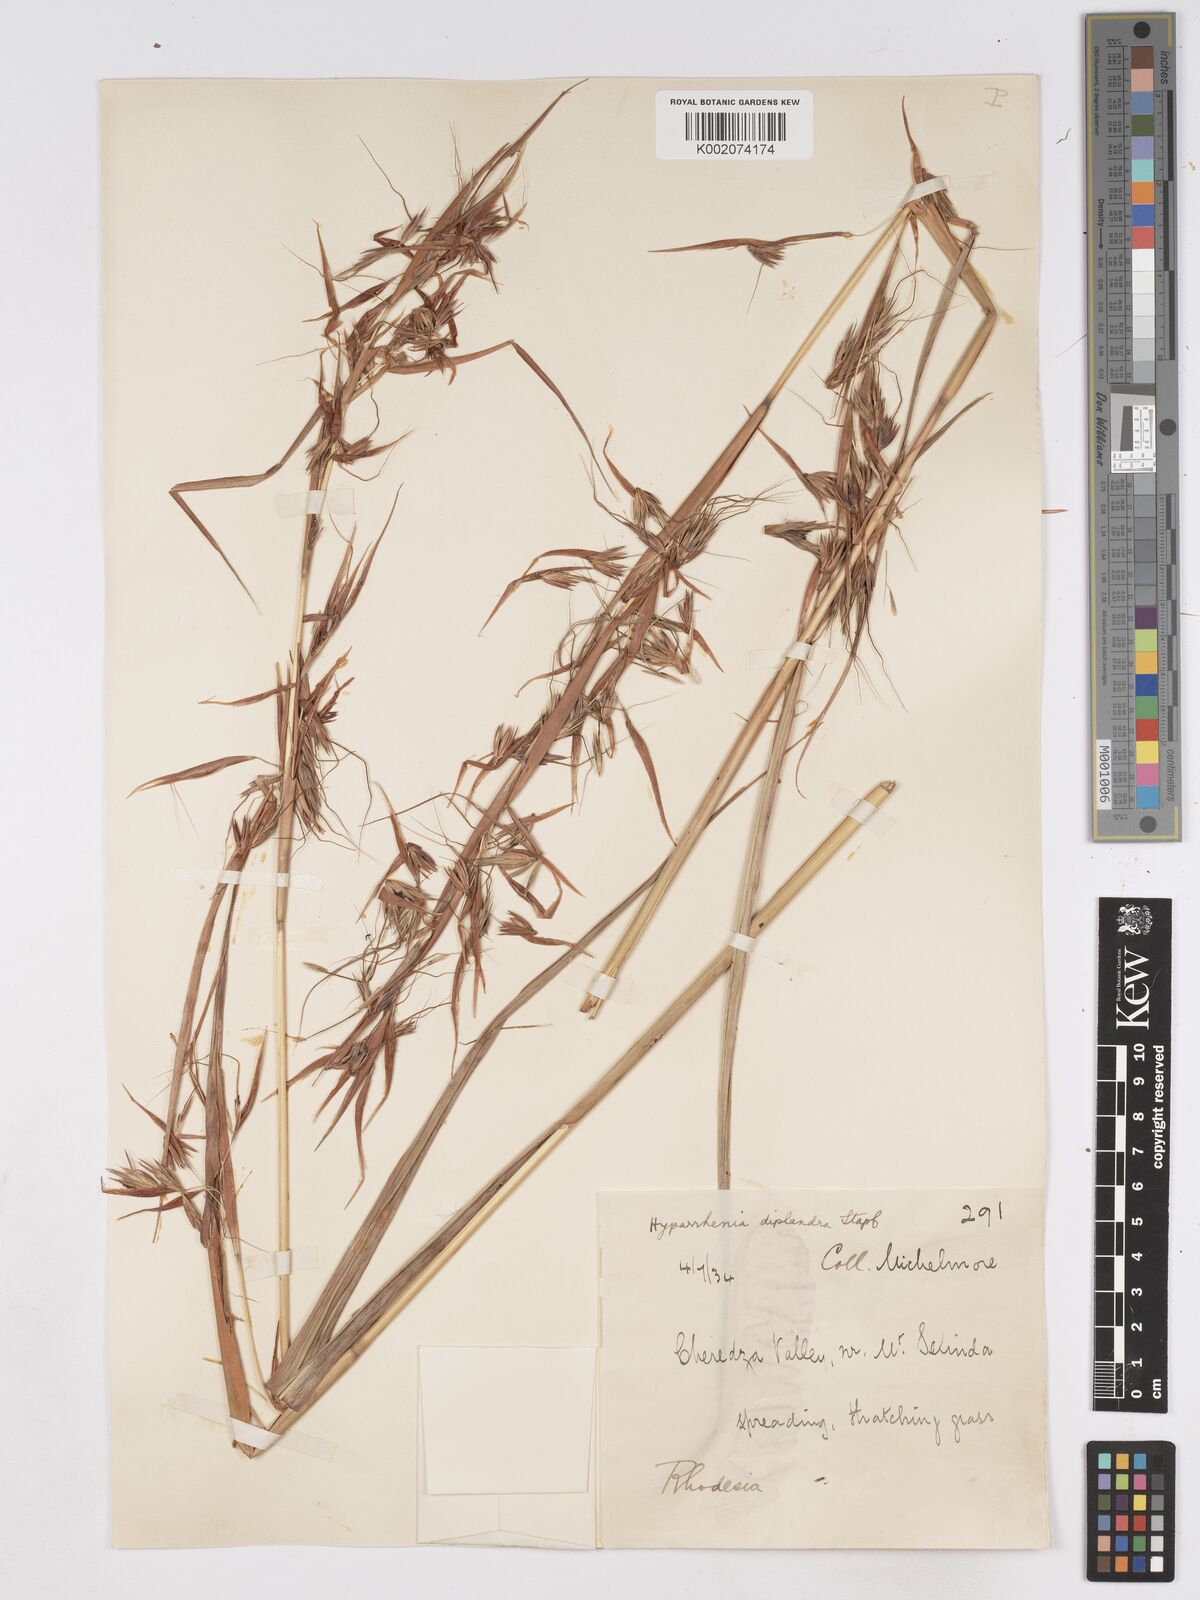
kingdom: Plantae
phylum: Tracheophyta
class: Liliopsida
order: Poales
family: Poaceae
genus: Hyparrhenia
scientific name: Hyparrhenia diplandra
